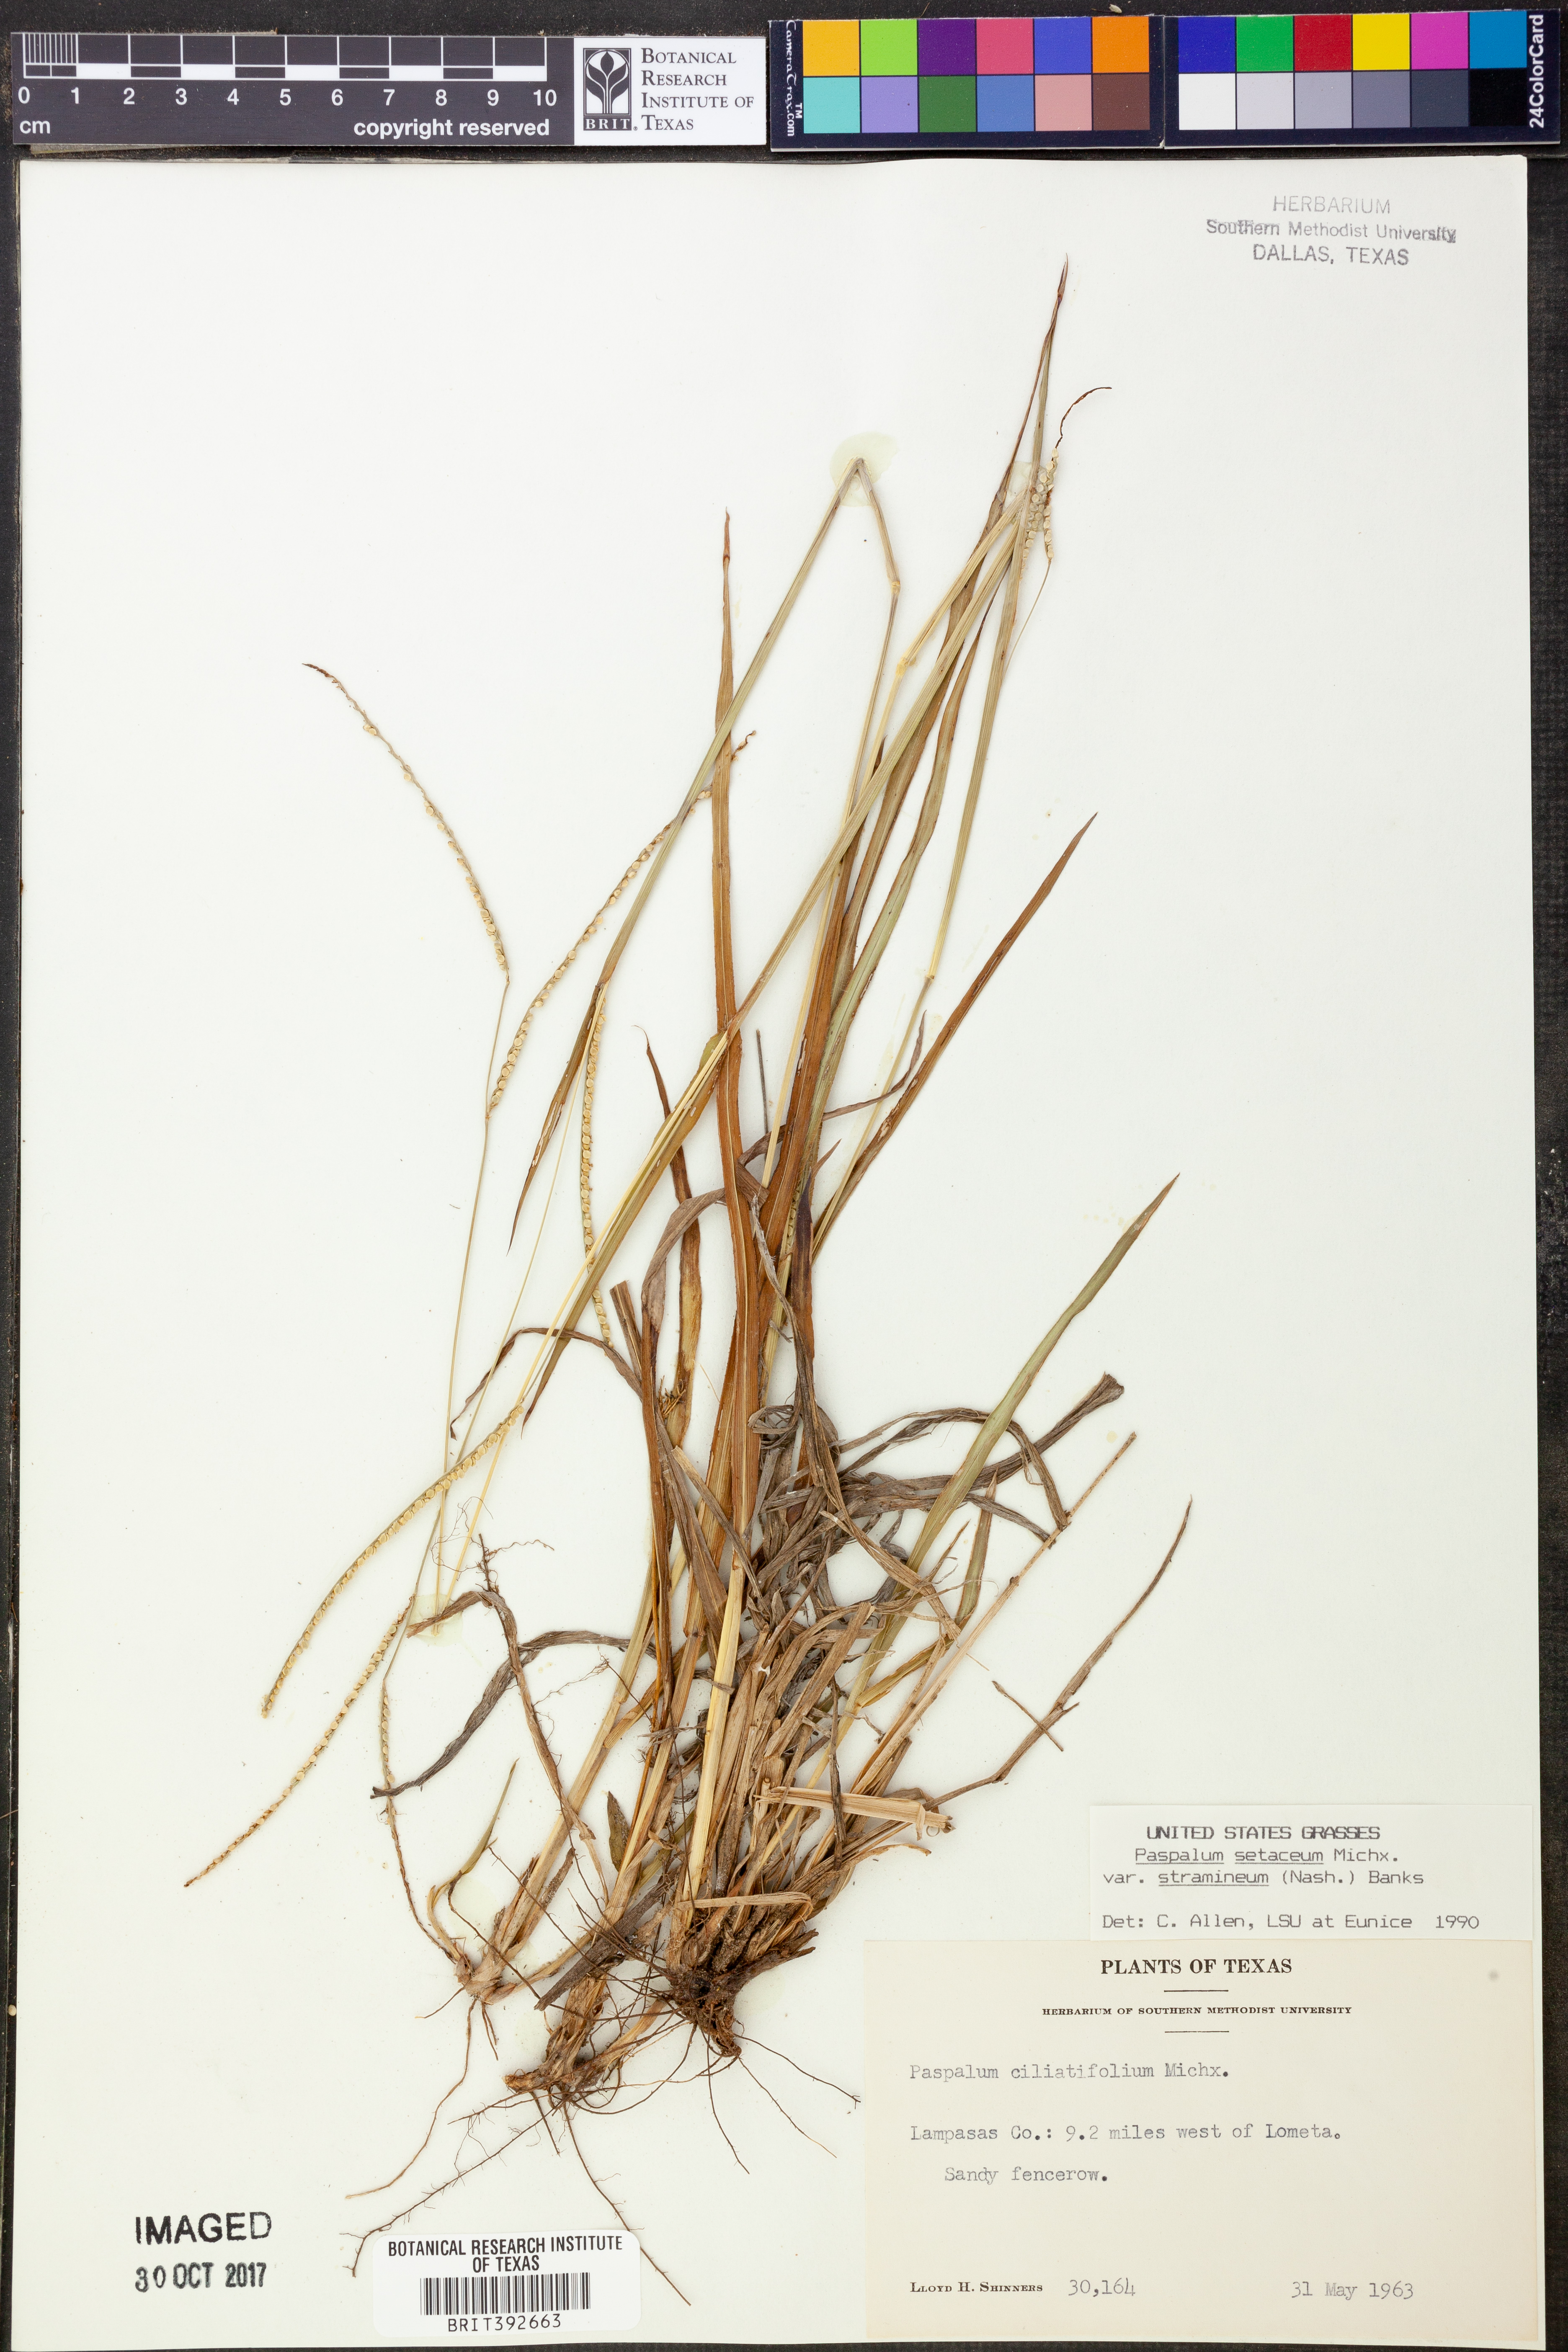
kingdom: Plantae
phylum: Tracheophyta
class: Liliopsida
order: Poales
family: Poaceae
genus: Paspalum
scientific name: Paspalum setaceum
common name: Slender paspalum
